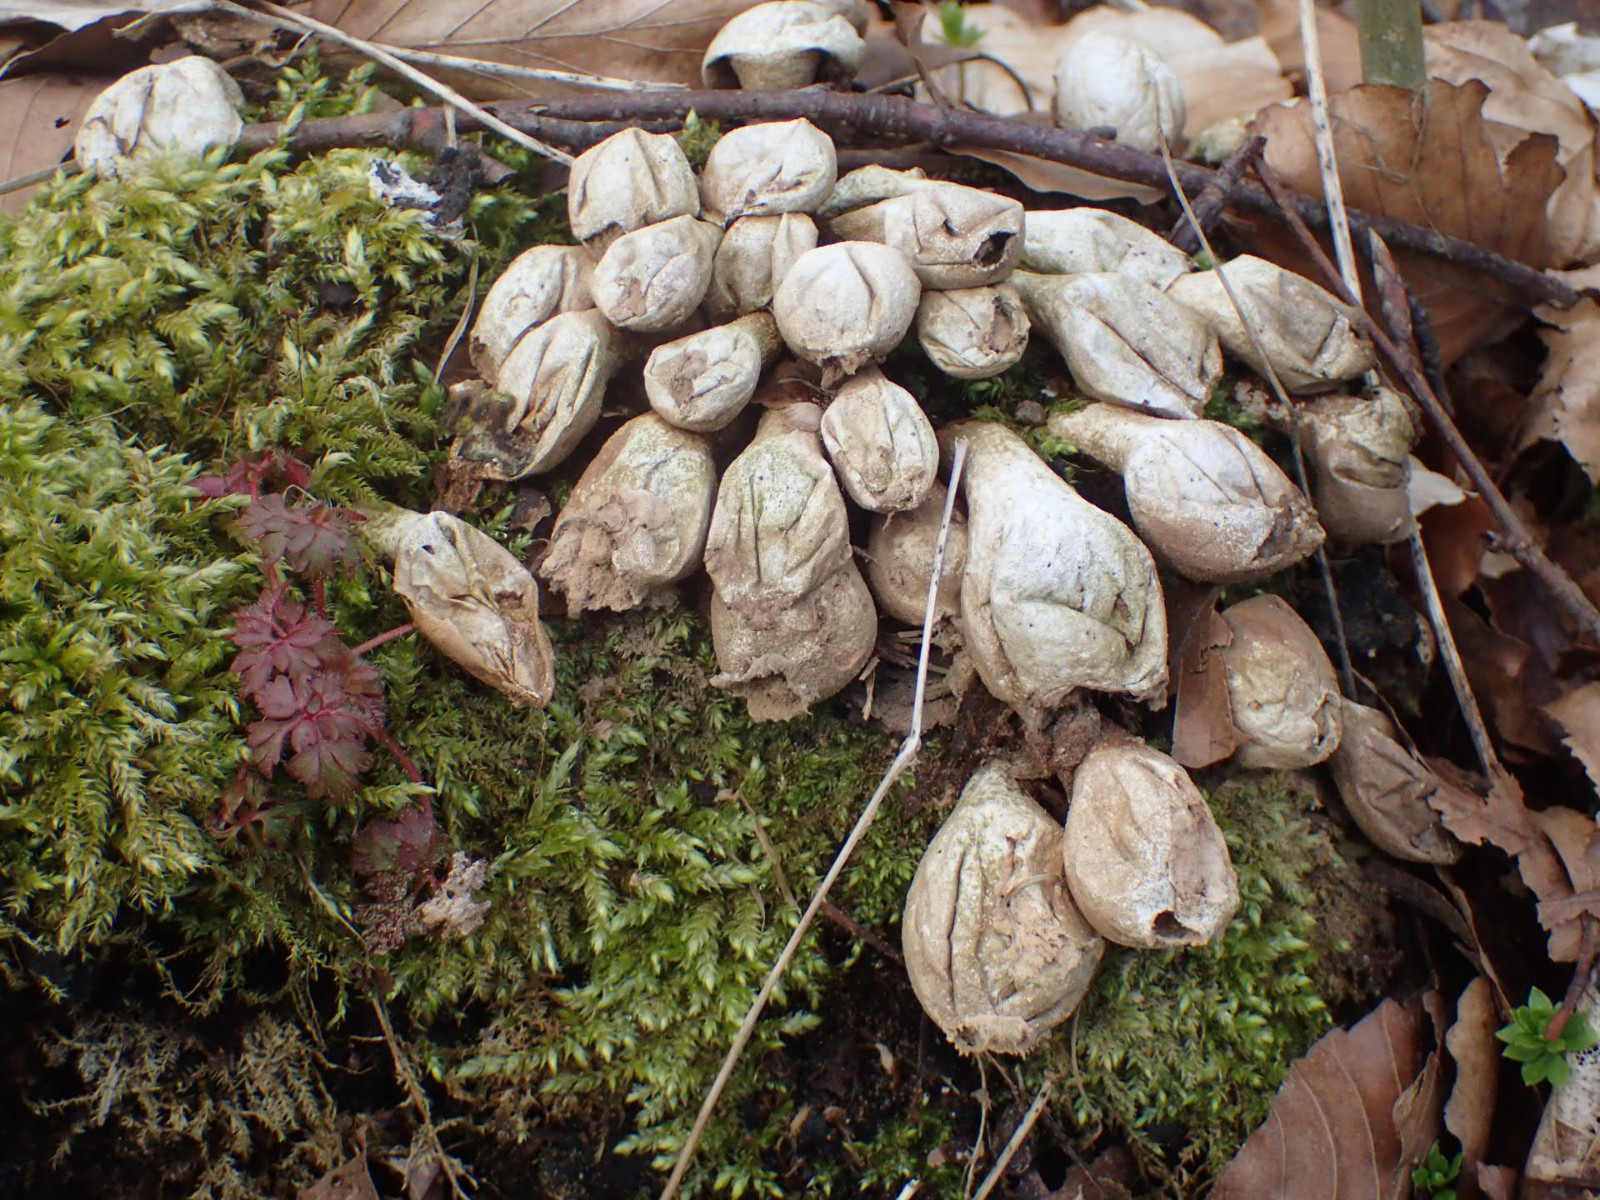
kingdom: Fungi
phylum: Basidiomycota
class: Agaricomycetes
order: Agaricales
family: Lycoperdaceae
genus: Apioperdon
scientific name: Apioperdon pyriforme
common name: pære-støvbold
